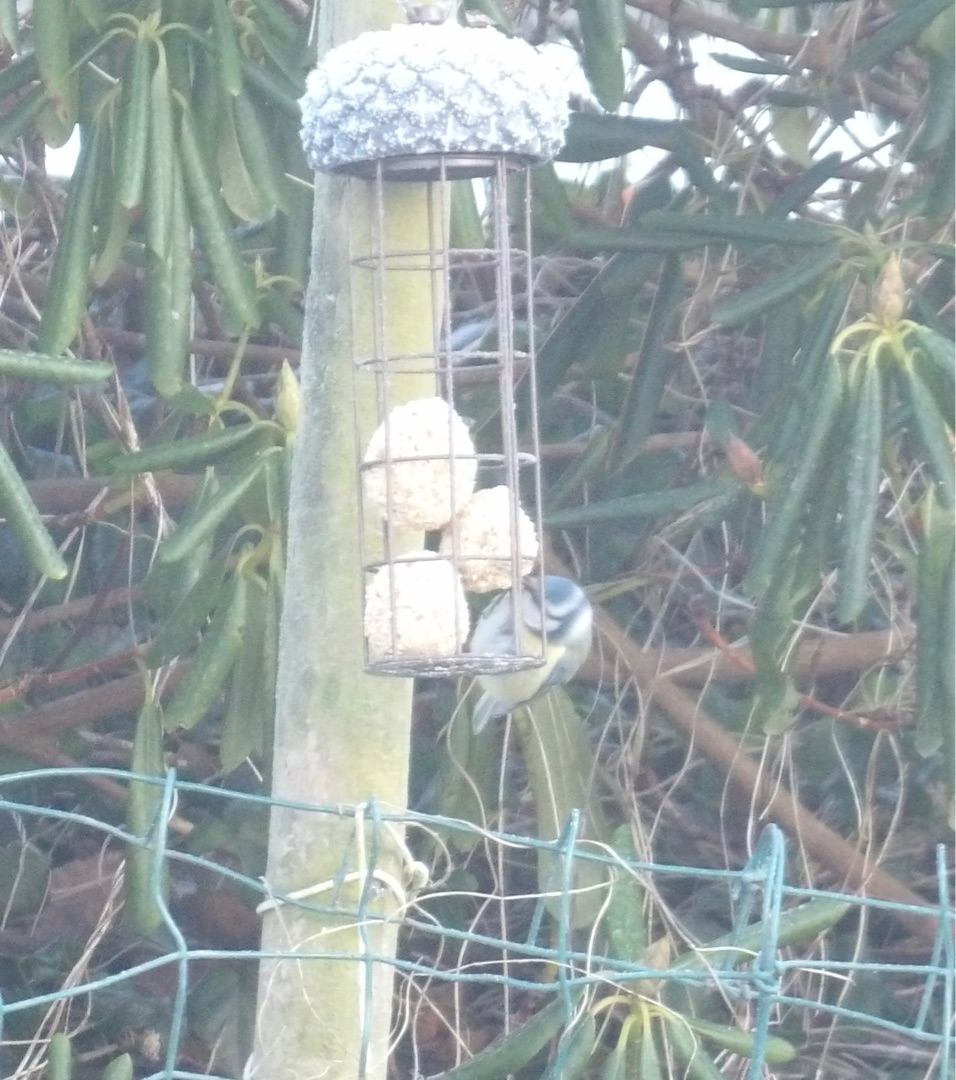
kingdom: Animalia
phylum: Chordata
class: Aves
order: Passeriformes
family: Paridae
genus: Cyanistes
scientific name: Cyanistes caeruleus
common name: Blåmejse
